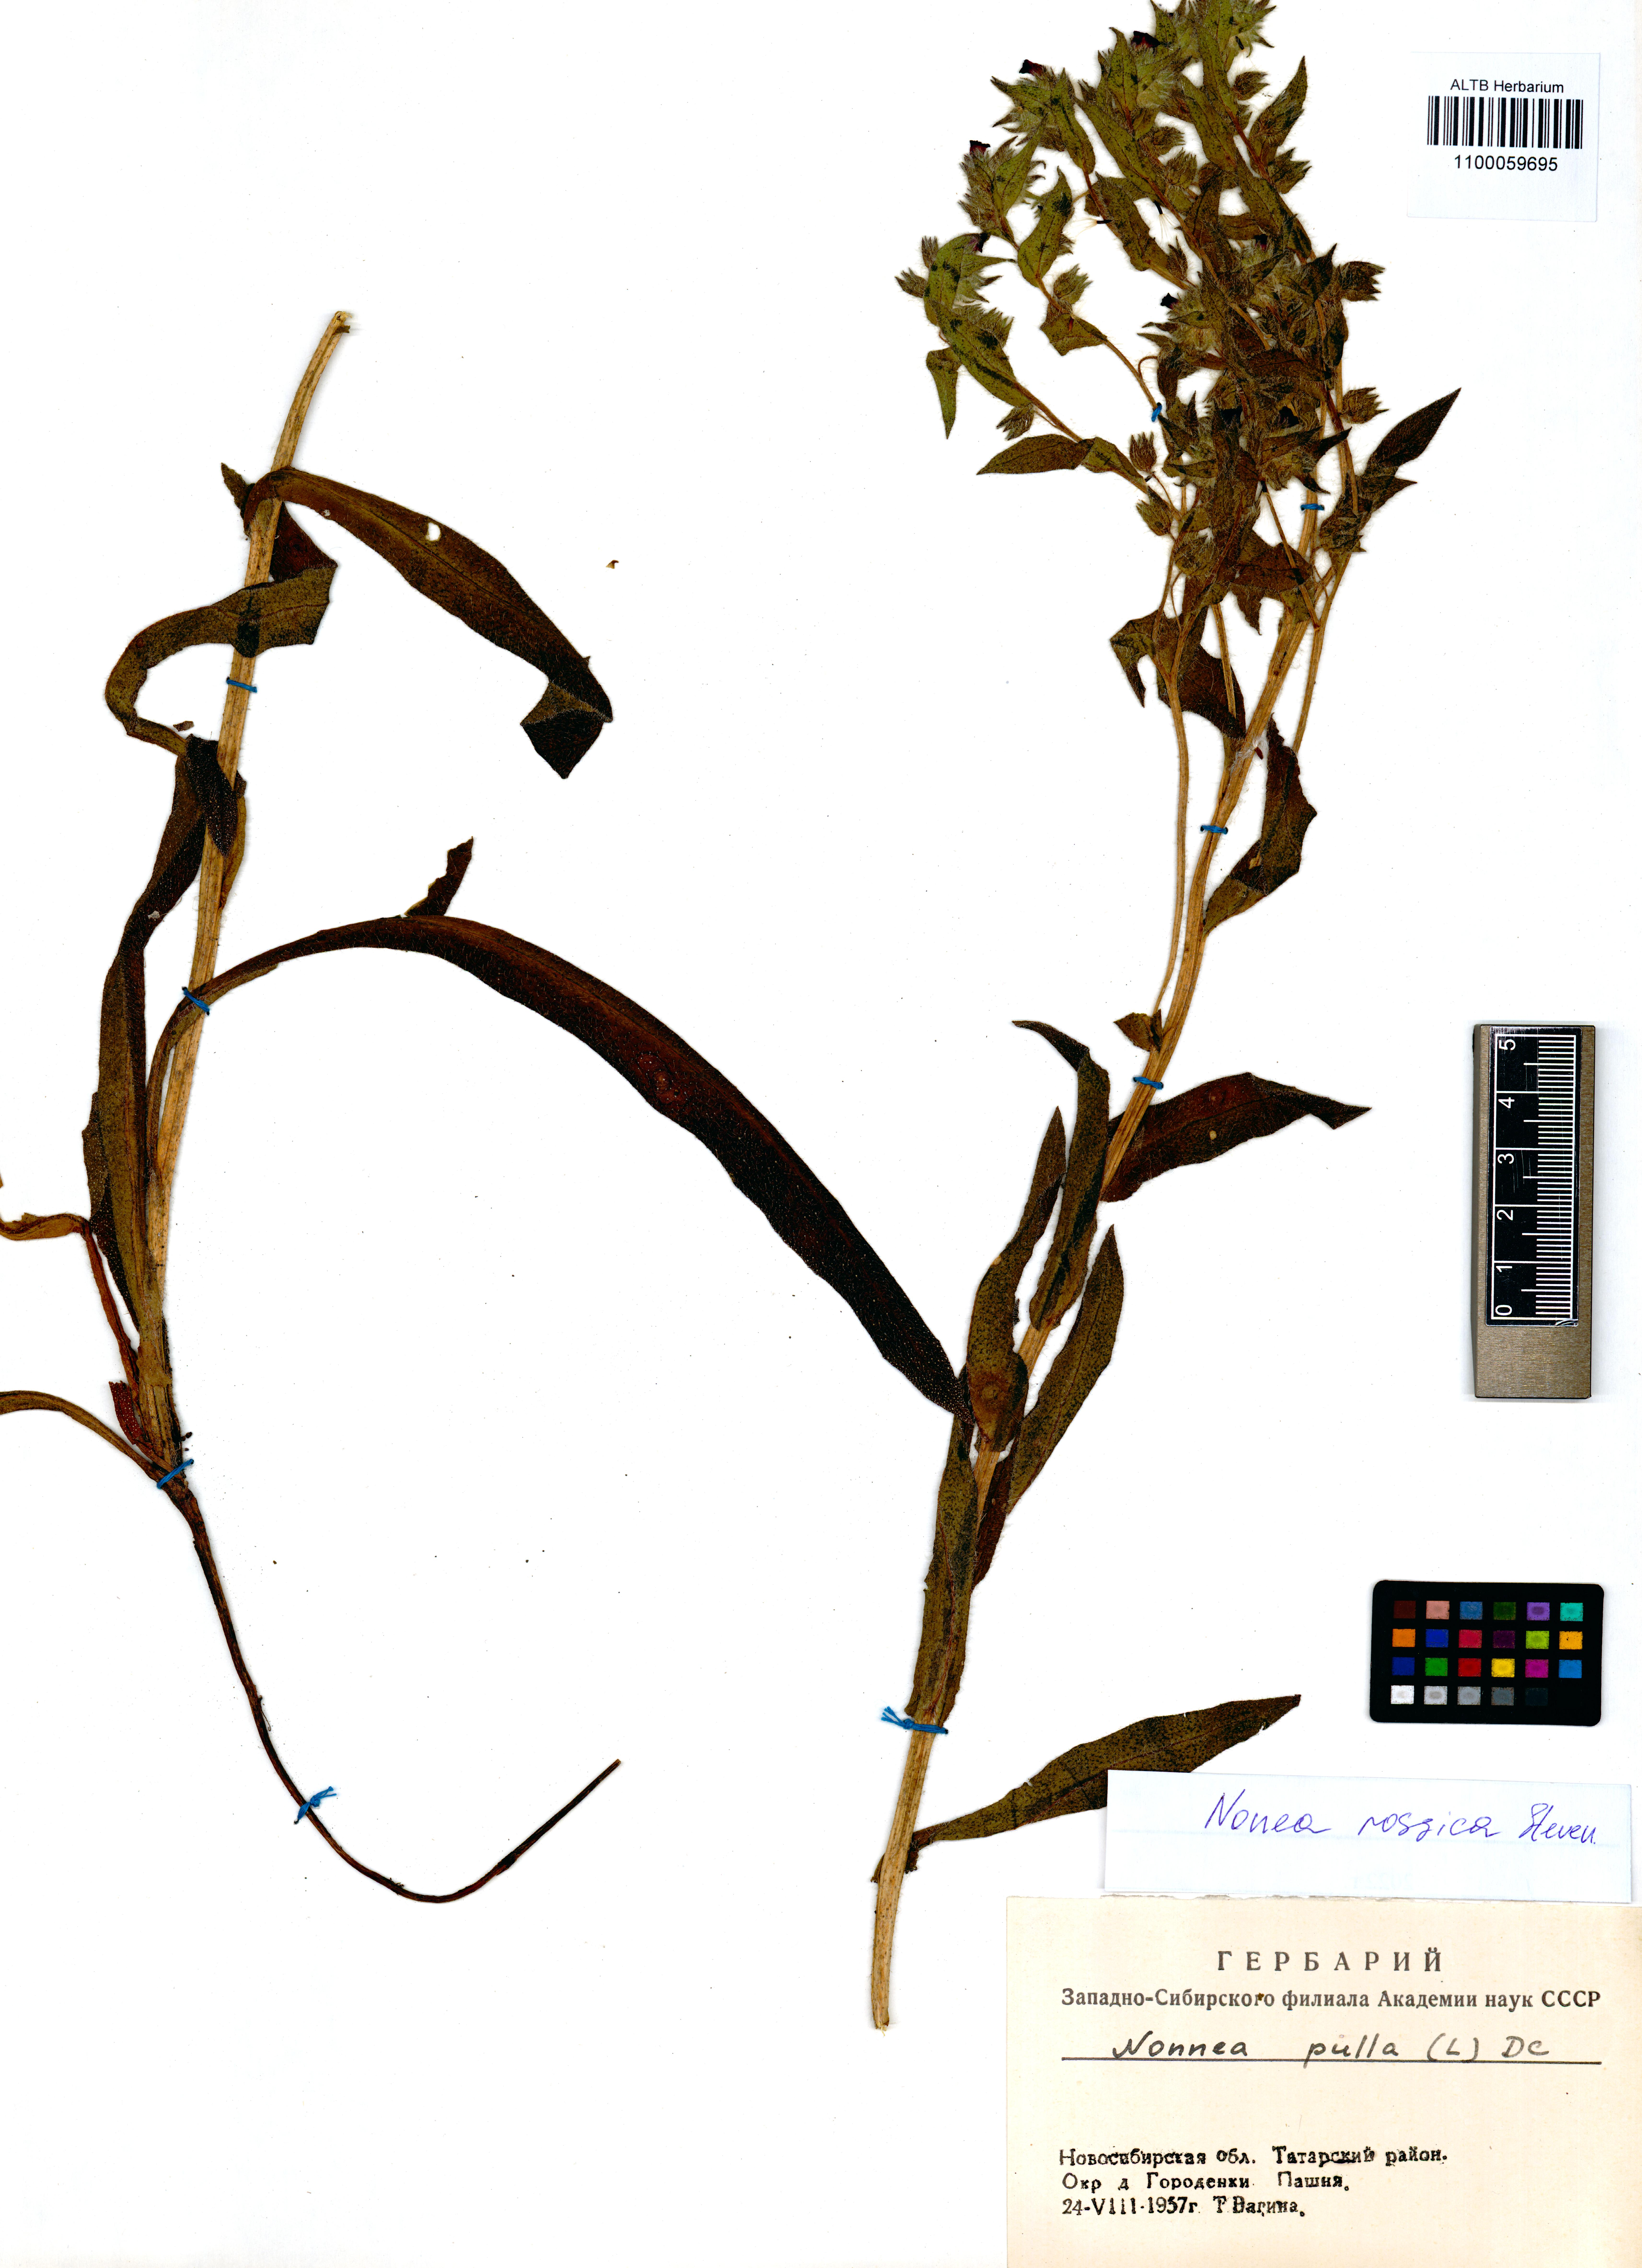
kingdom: Plantae
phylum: Tracheophyta
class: Magnoliopsida
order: Boraginales
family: Boraginaceae
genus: Nonea
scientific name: Nonea pulla
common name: Brown nonea
